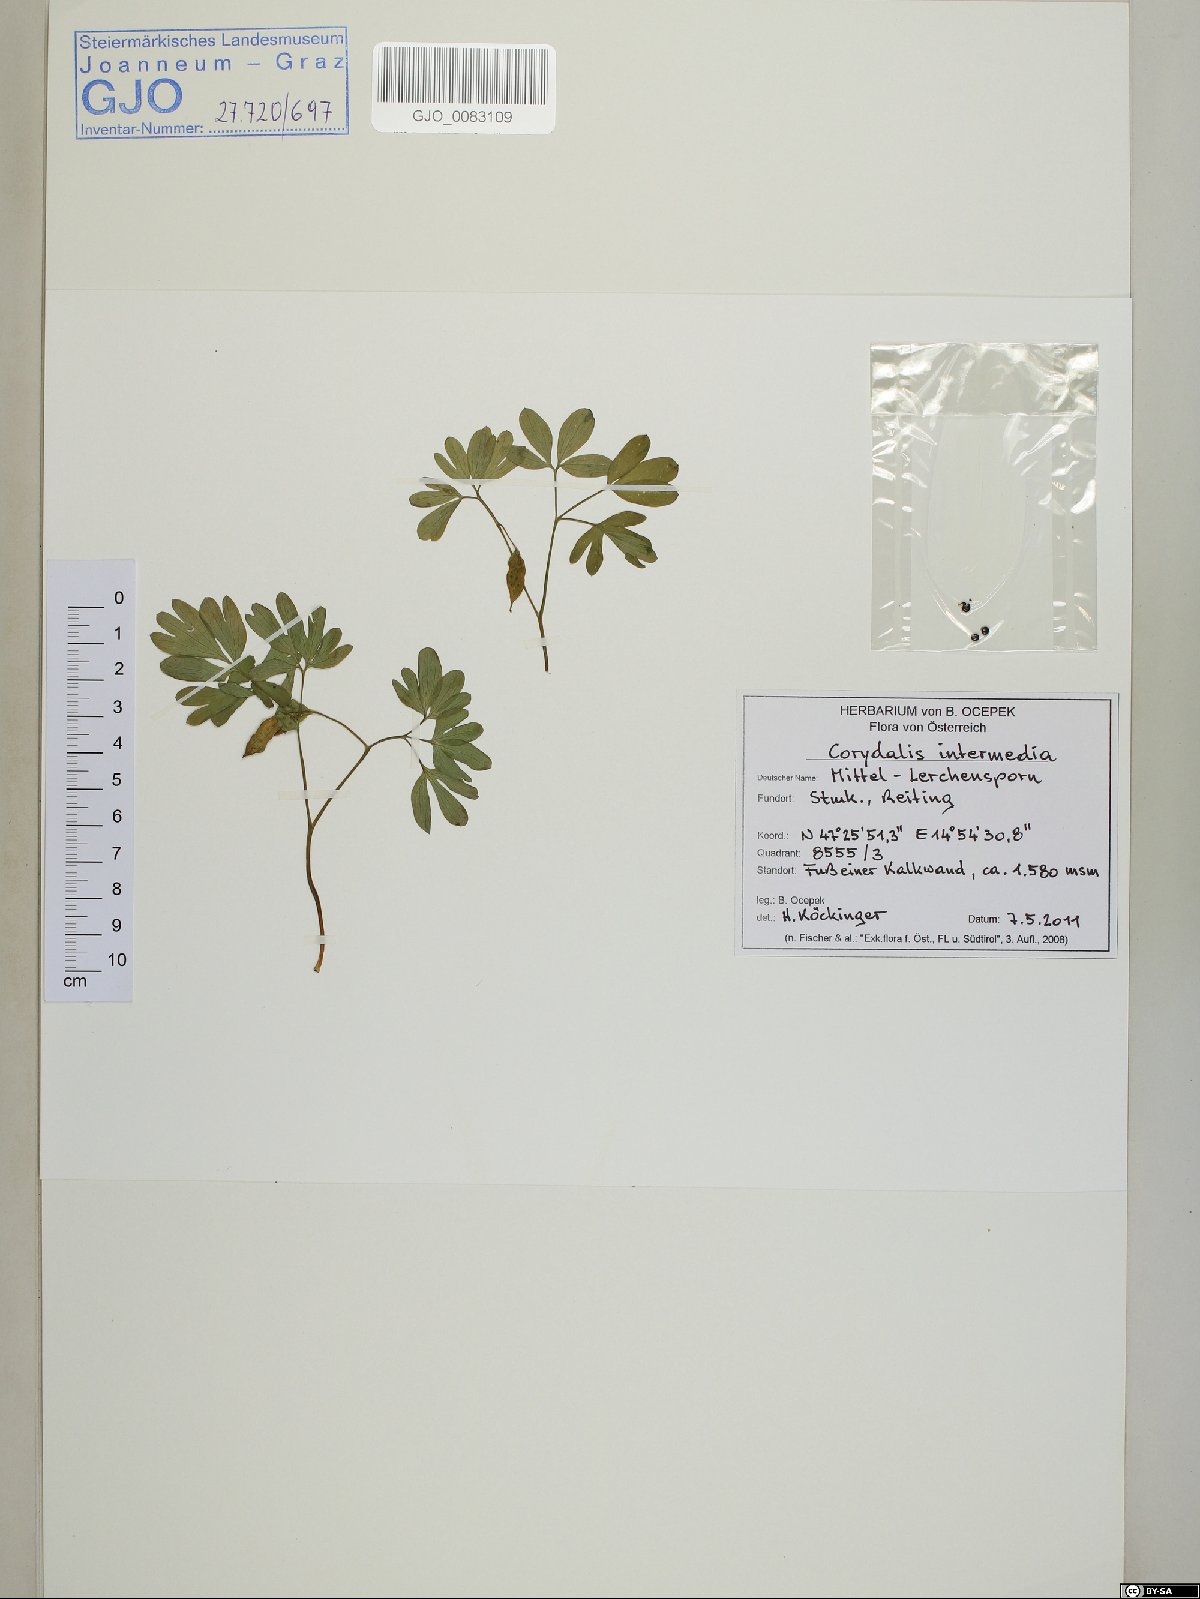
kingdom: Plantae
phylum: Tracheophyta
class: Magnoliopsida
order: Ranunculales
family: Papaveraceae
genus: Corydalis
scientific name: Corydalis intermedia
